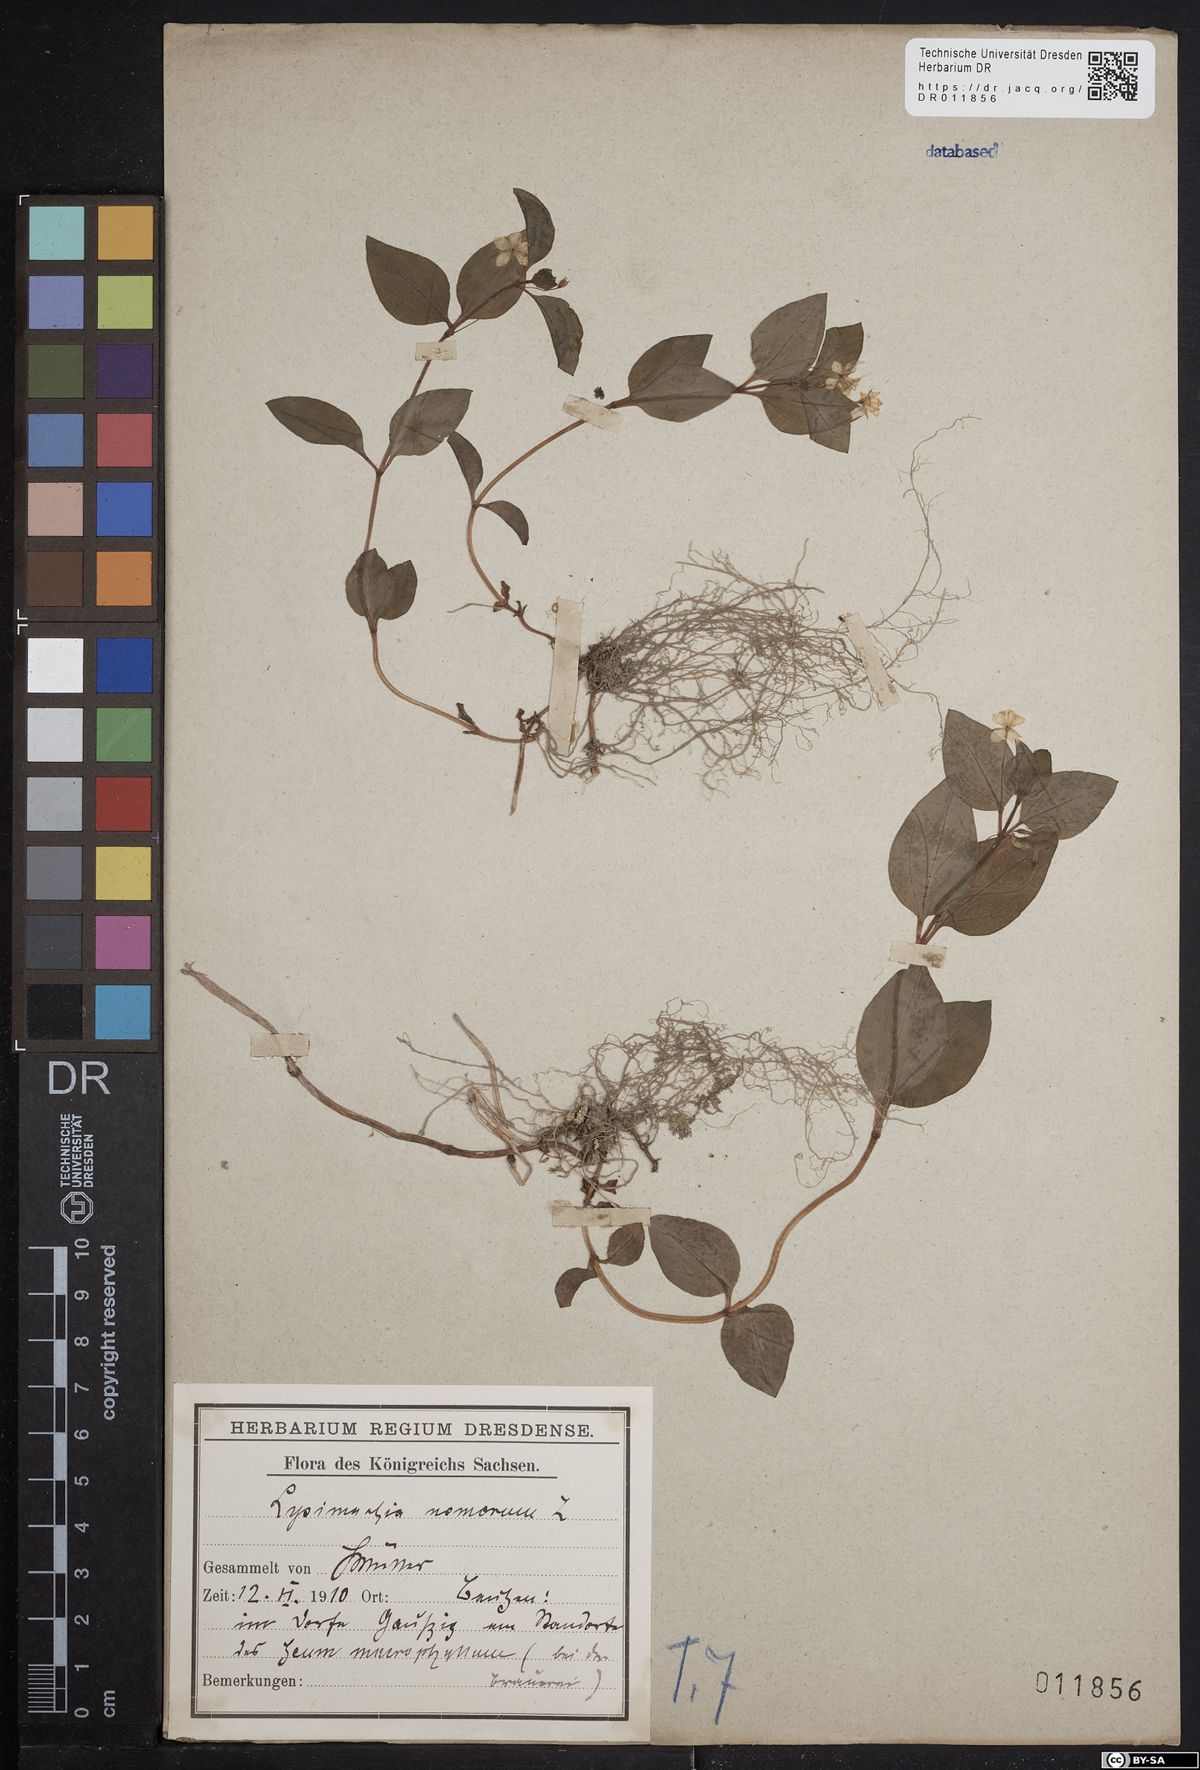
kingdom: Plantae
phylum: Tracheophyta
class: Magnoliopsida
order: Ericales
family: Primulaceae
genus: Lysimachia
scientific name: Lysimachia nemorum
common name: Yellow pimpernel
